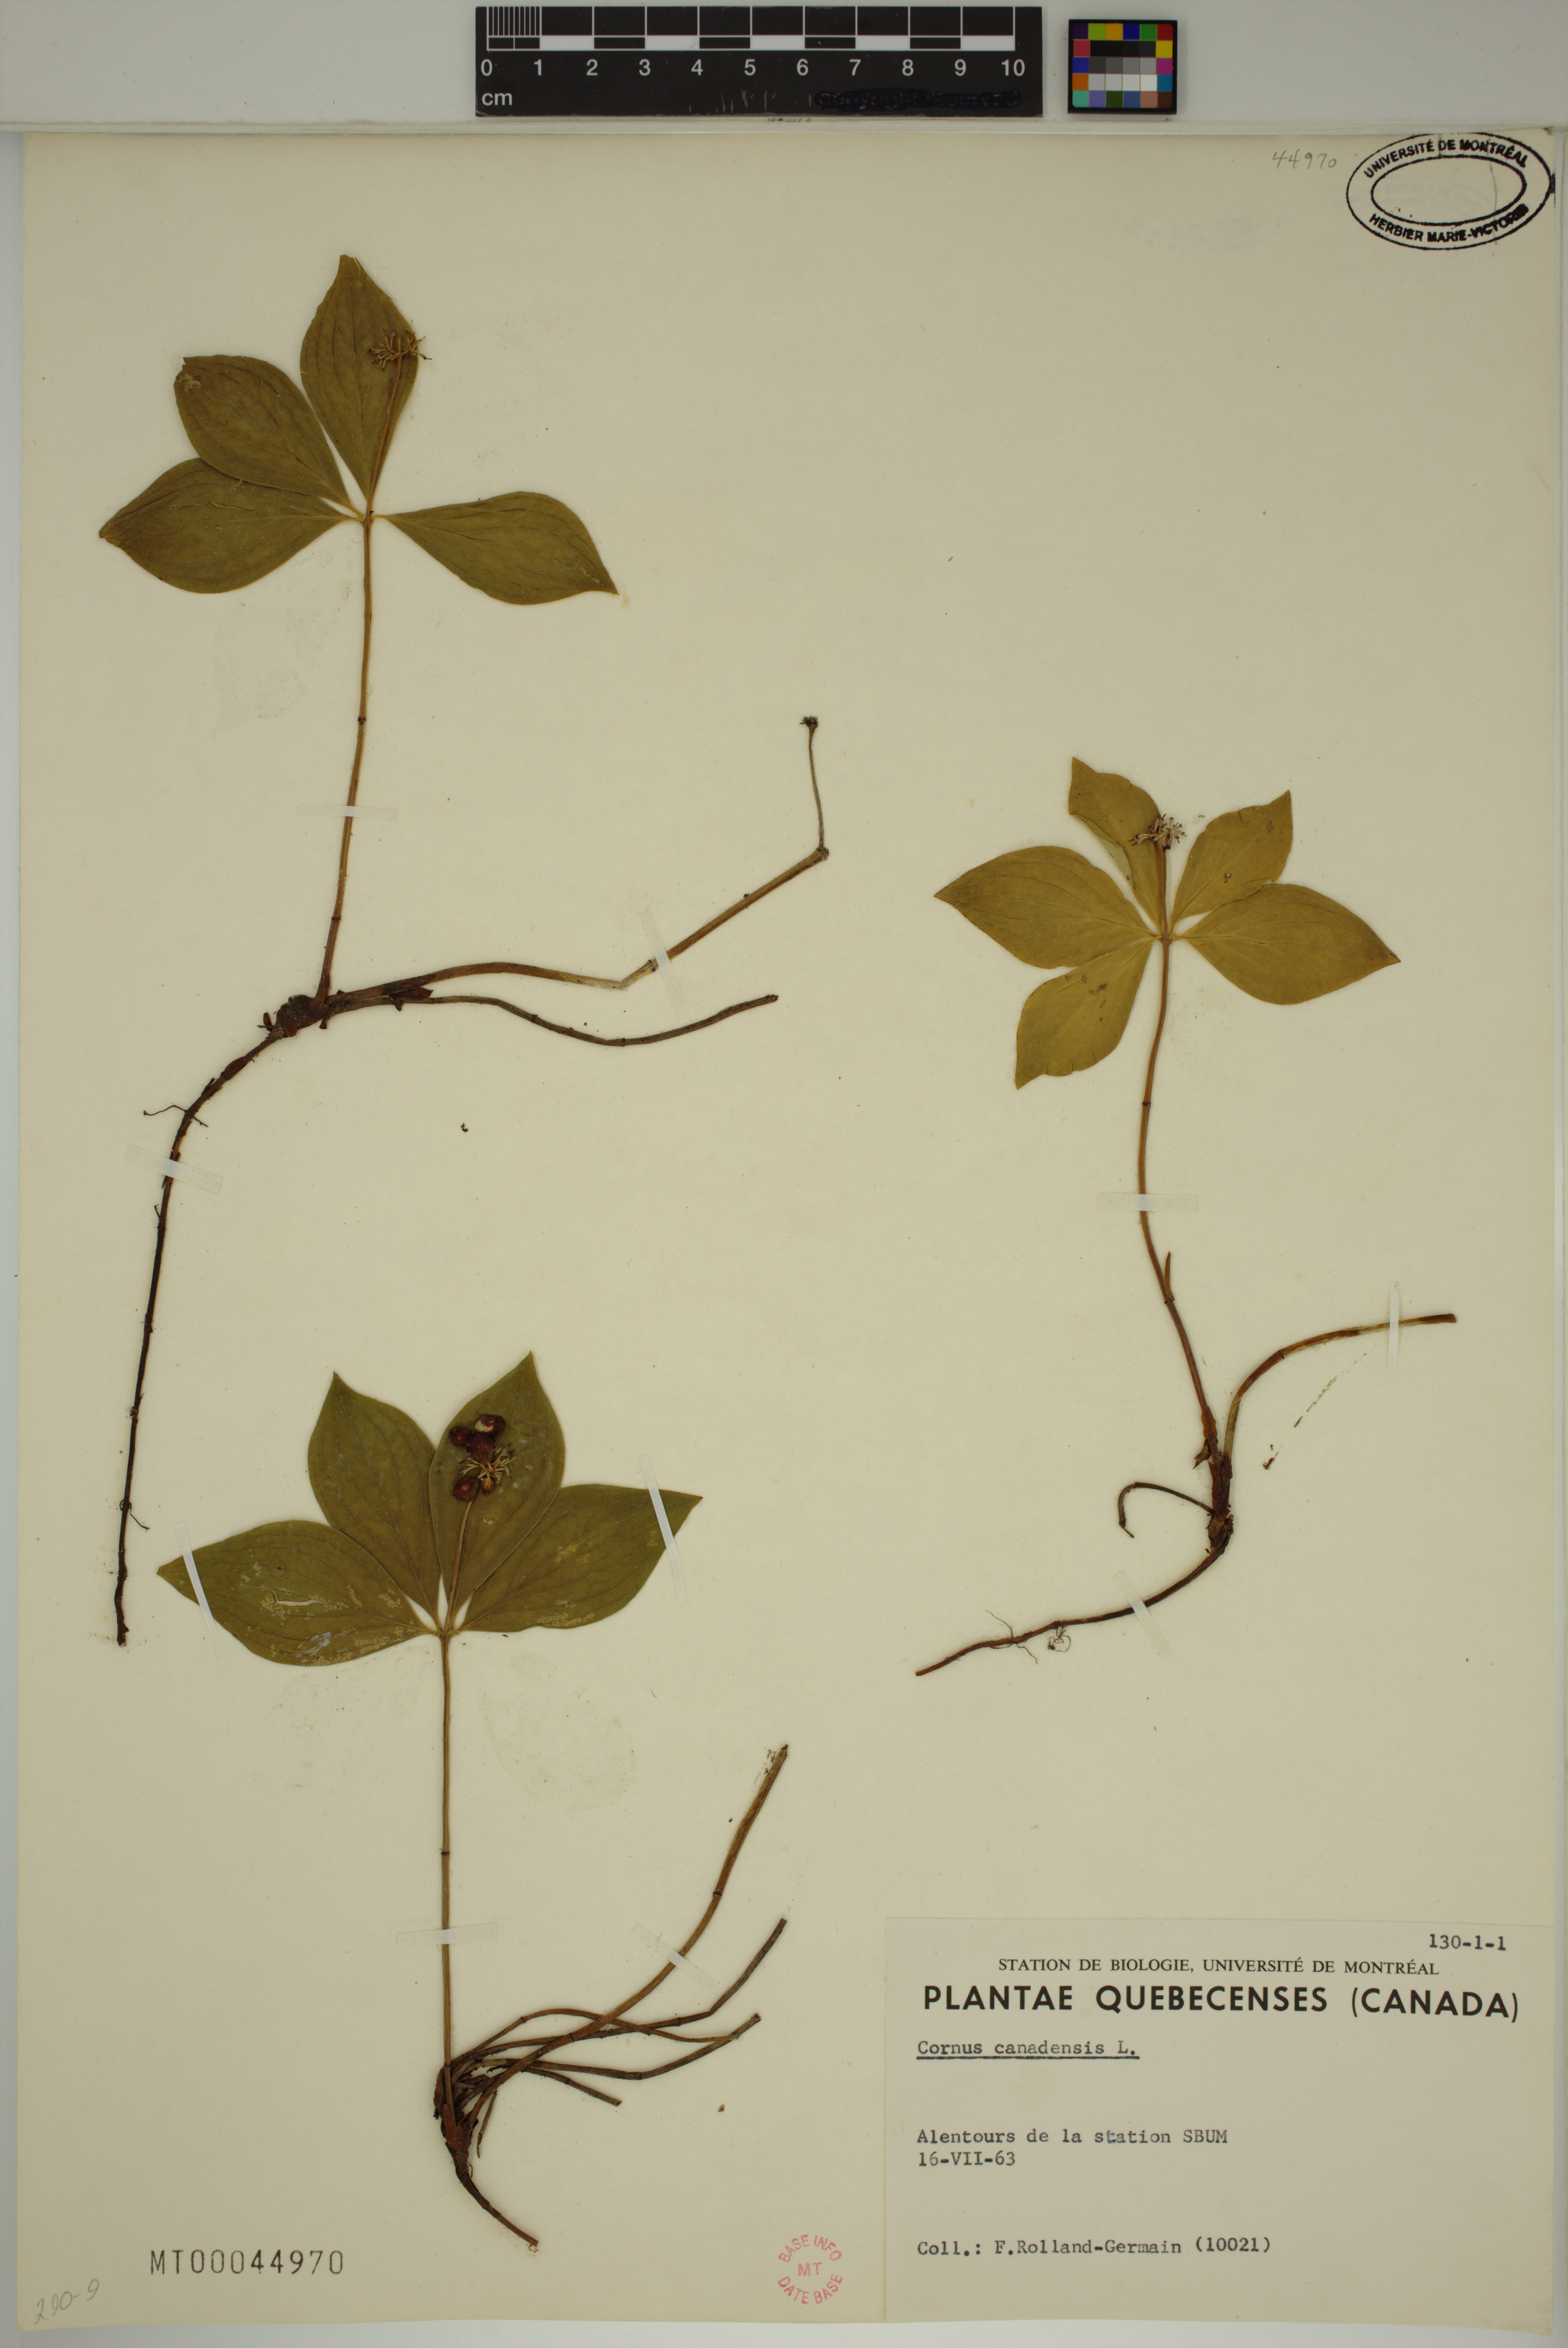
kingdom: Plantae
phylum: Tracheophyta
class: Magnoliopsida
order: Cornales
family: Cornaceae
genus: Cornus
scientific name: Cornus canadensis
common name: Creeping dogwood
